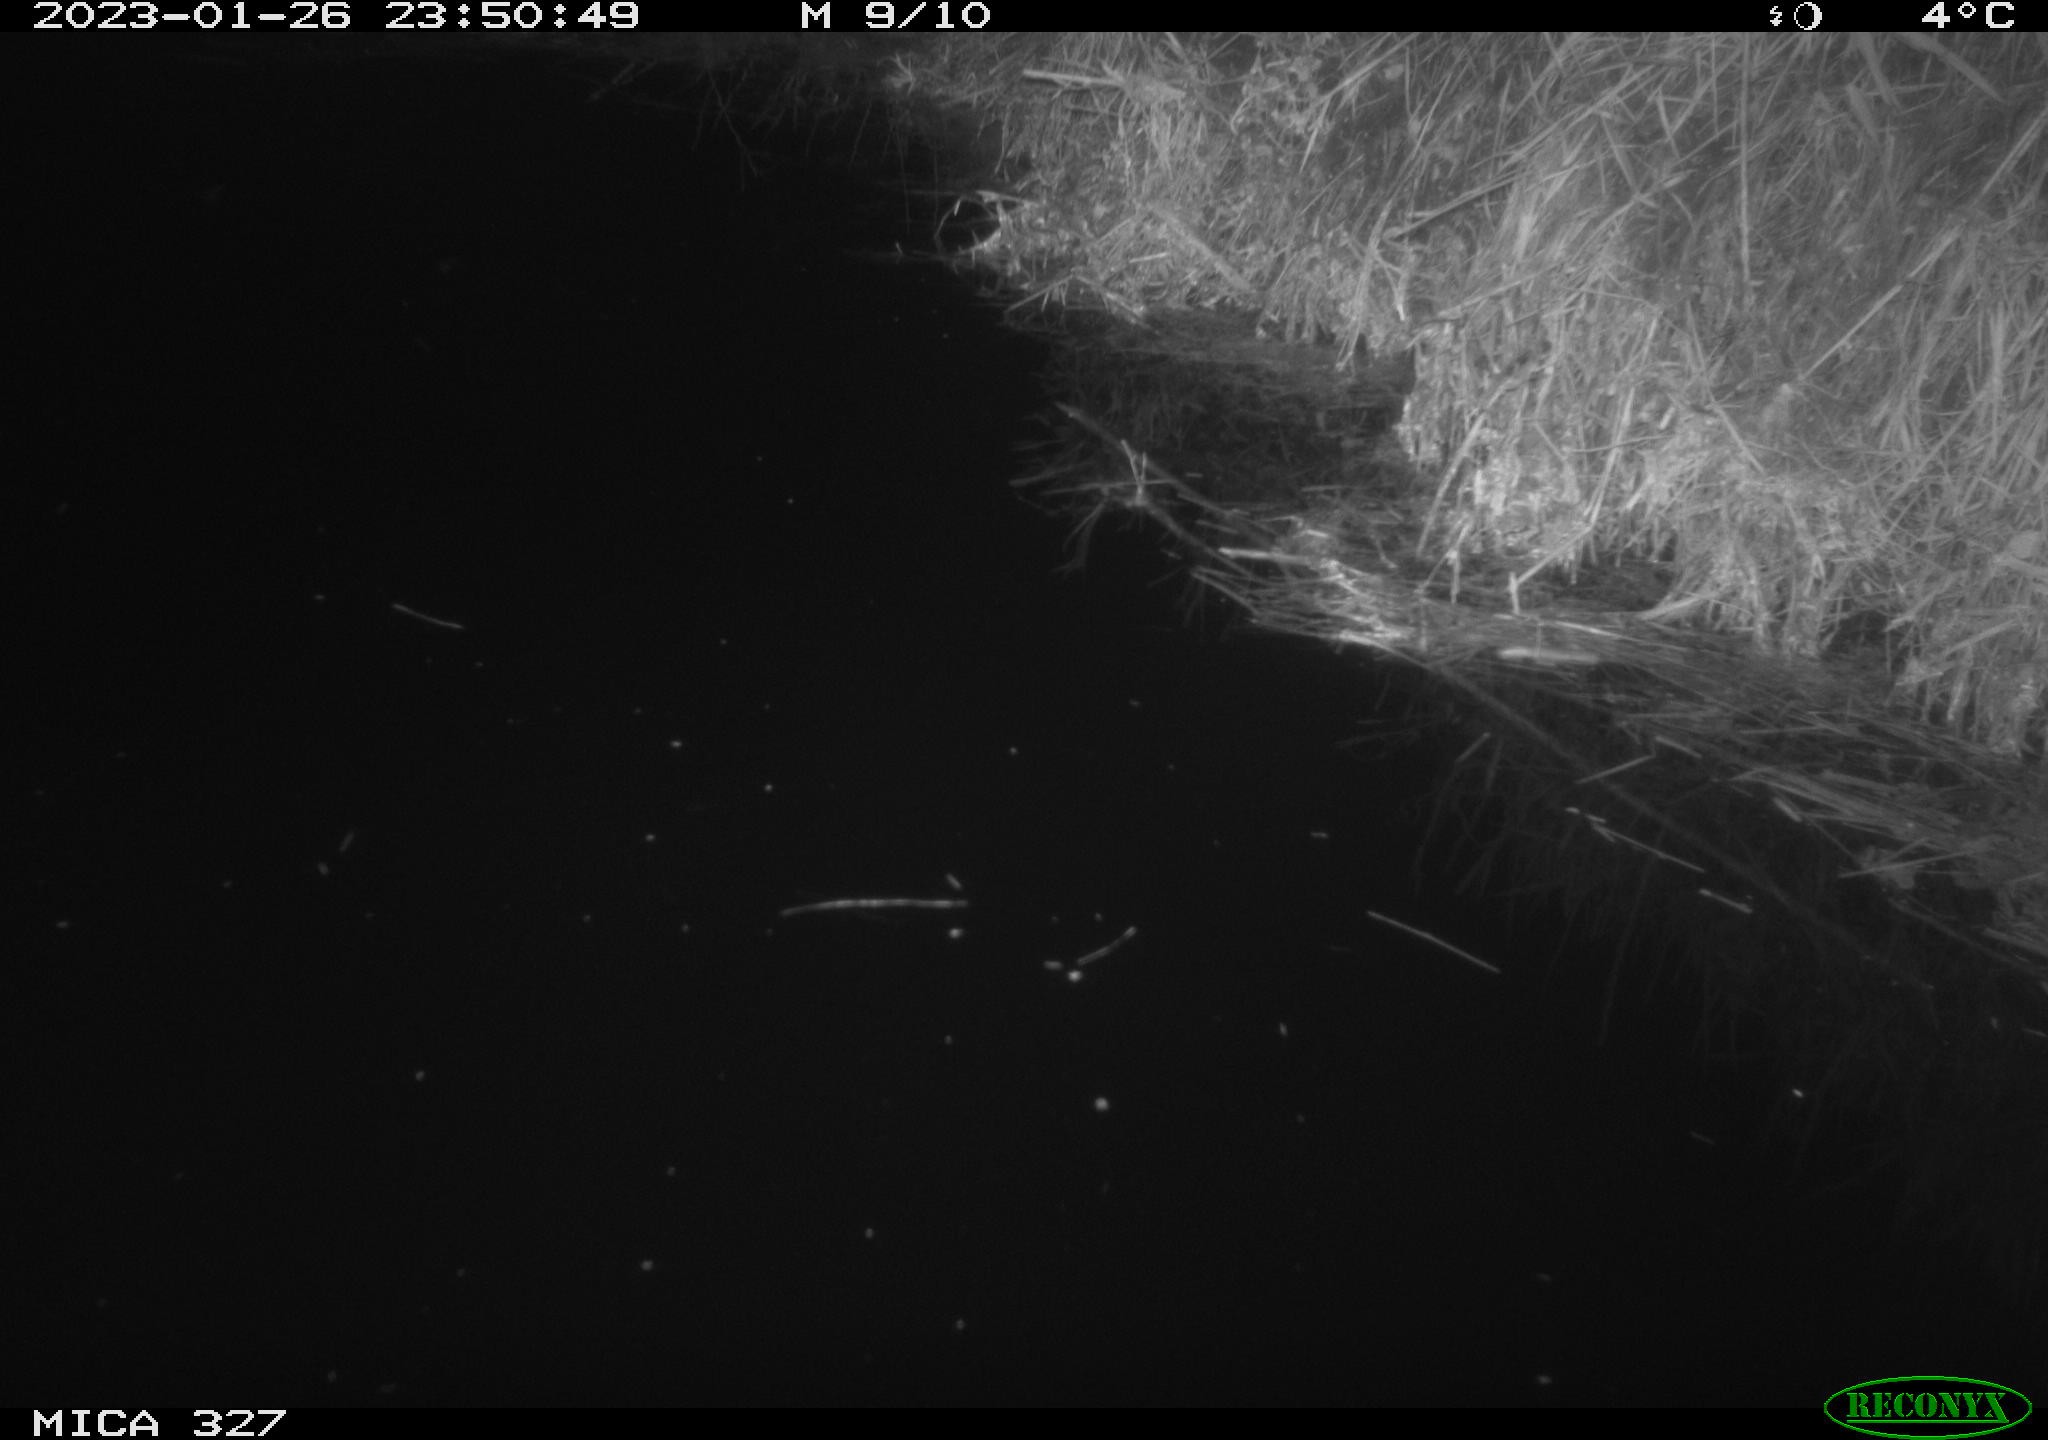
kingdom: Animalia
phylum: Chordata
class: Mammalia
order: Rodentia
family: Cricetidae
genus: Ondatra
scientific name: Ondatra zibethicus
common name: Muskrat
